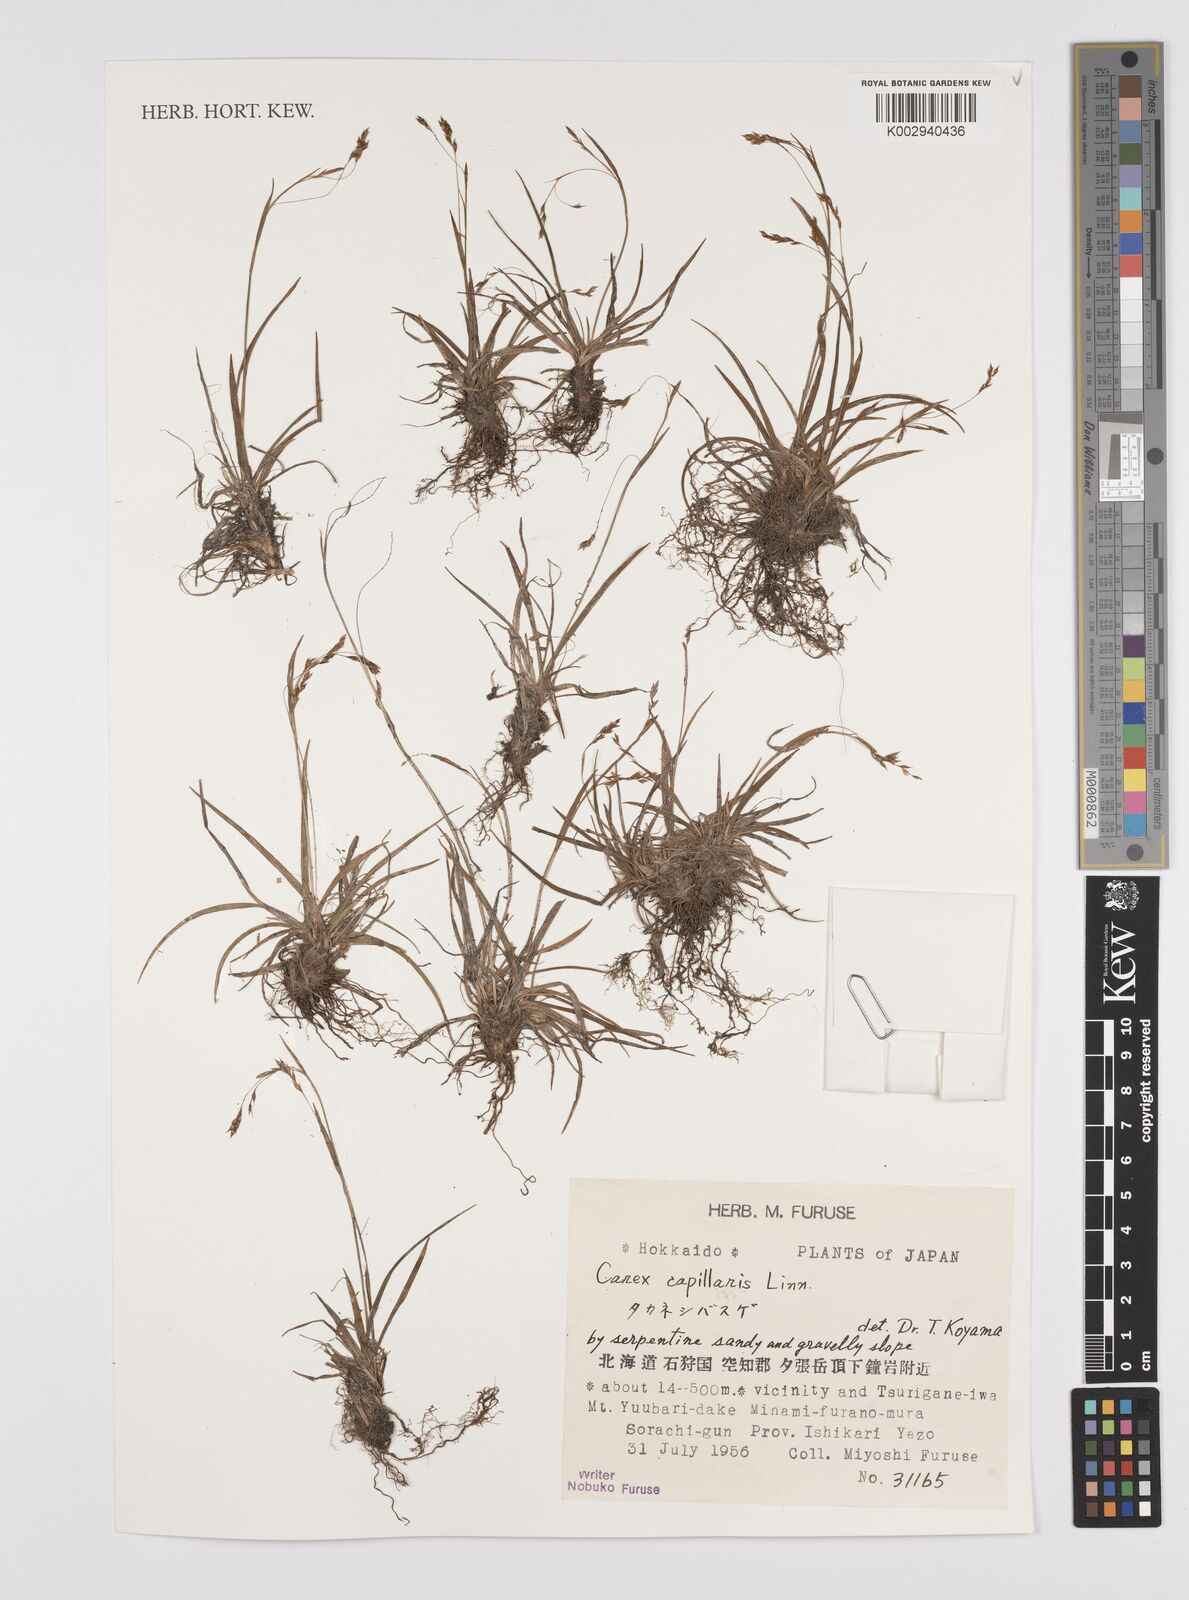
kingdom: Plantae
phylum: Tracheophyta
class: Liliopsida
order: Poales
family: Cyperaceae
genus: Carex
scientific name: Carex capillaris
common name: Hair sedge
